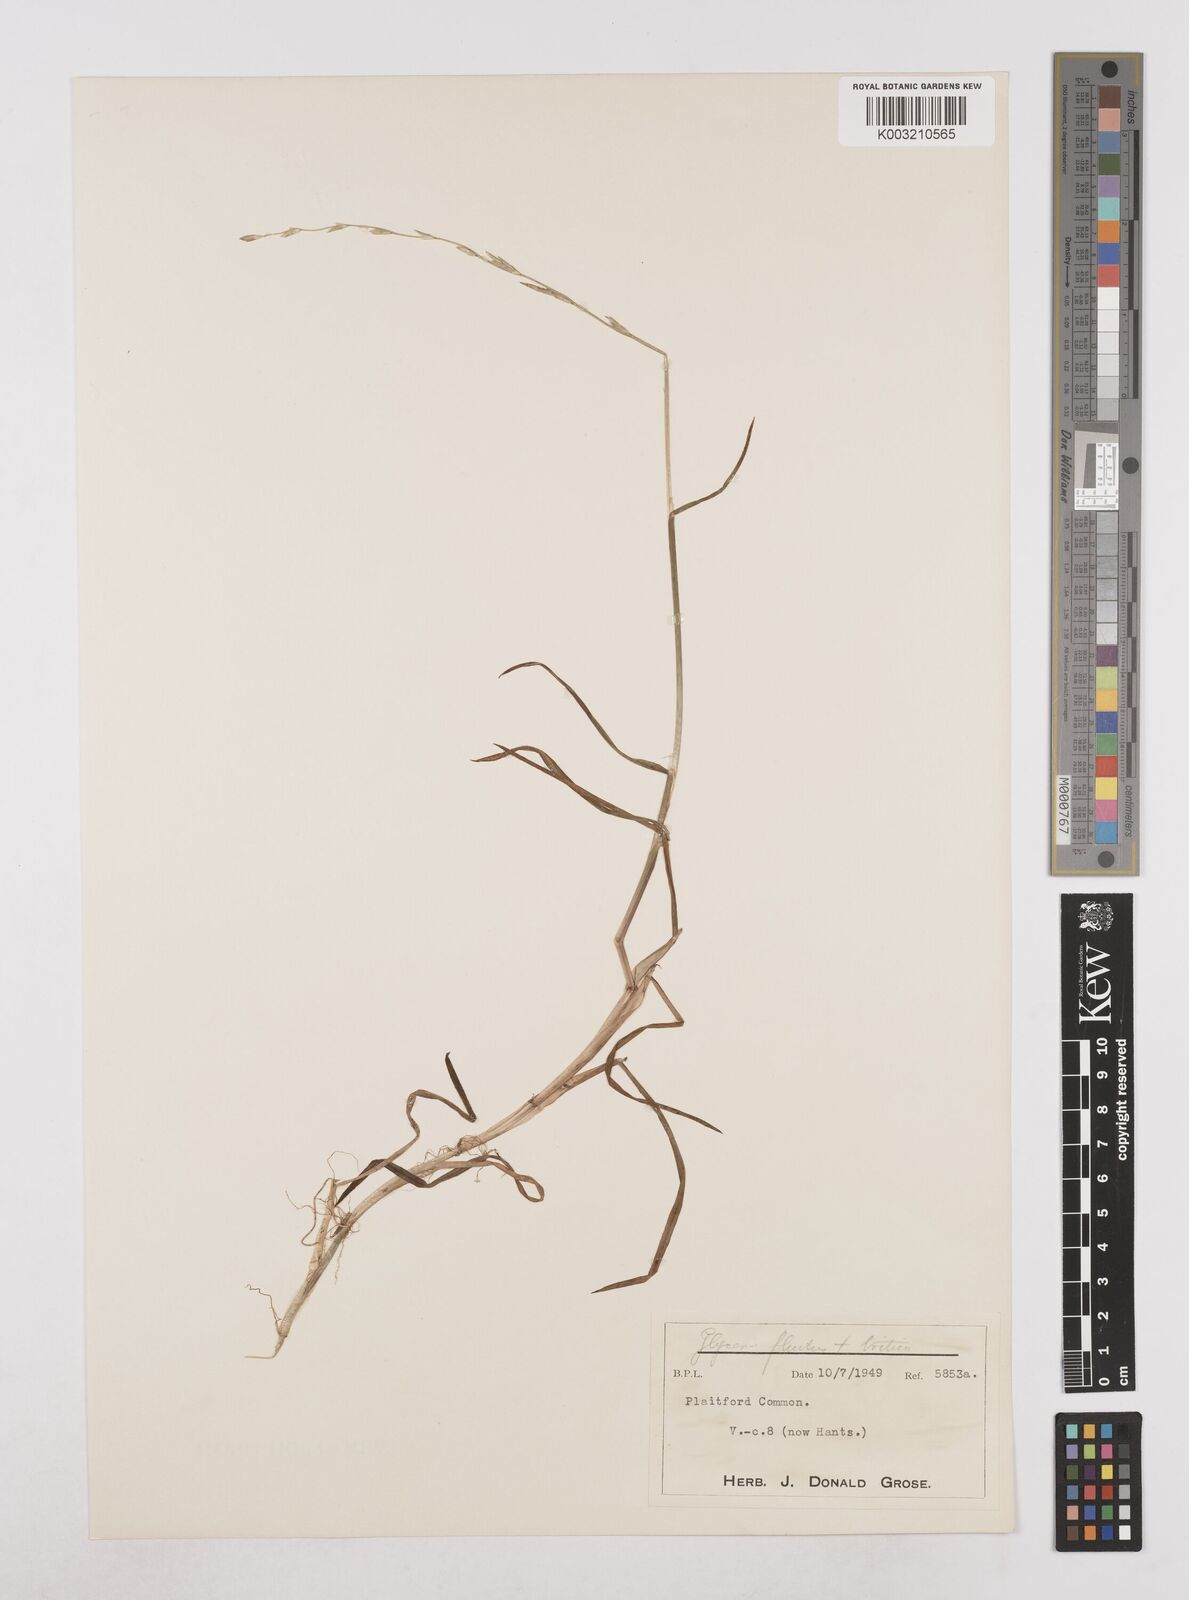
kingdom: Plantae
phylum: Tracheophyta
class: Liliopsida
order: Poales
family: Poaceae
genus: Glyceria
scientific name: Glyceria fluitans
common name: Floating sweet-grass
